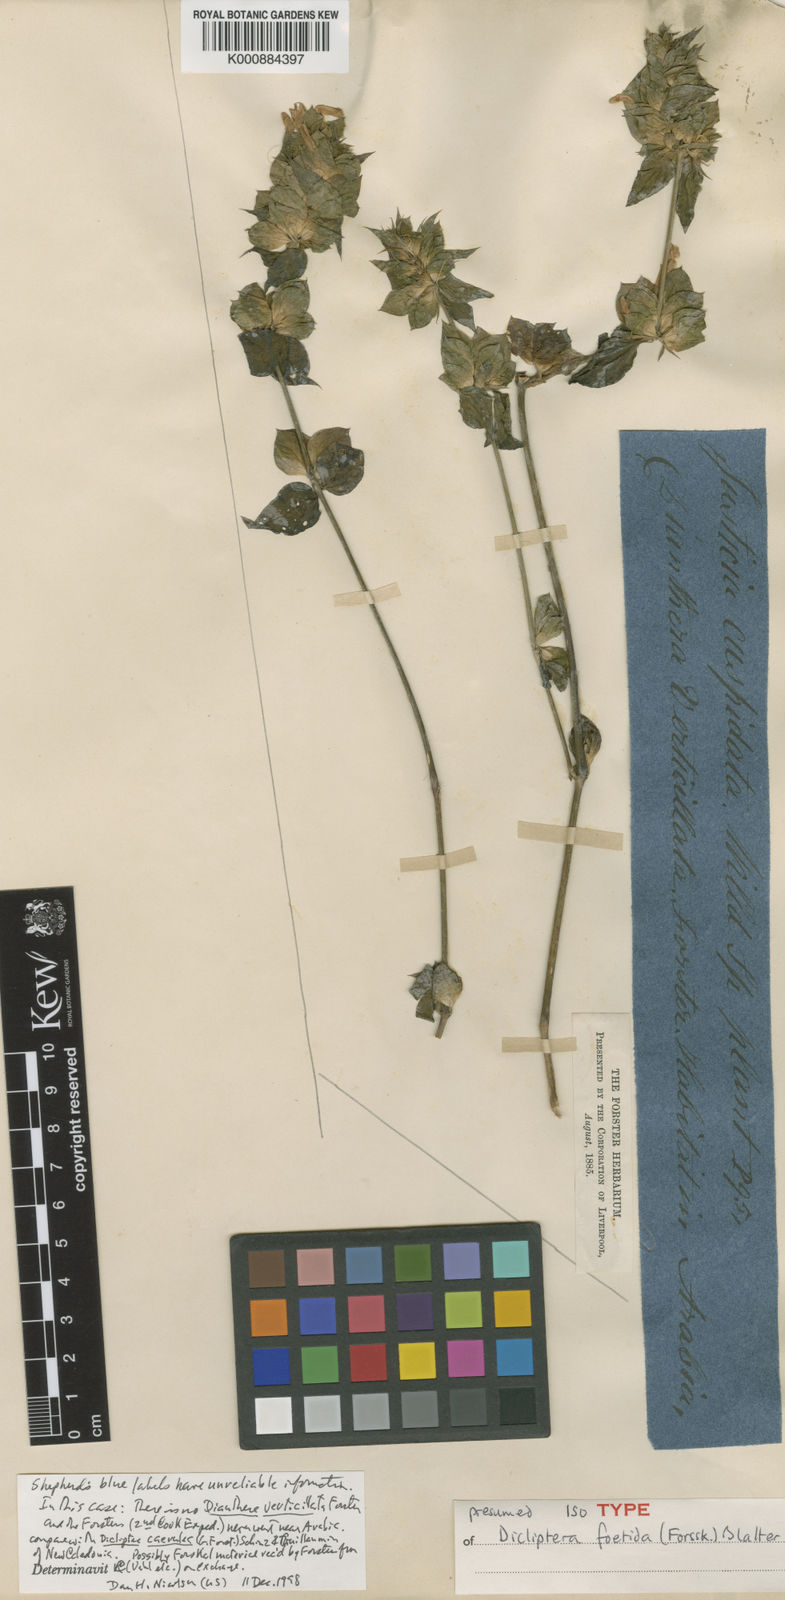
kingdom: Plantae
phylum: Tracheophyta
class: Magnoliopsida
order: Lamiales
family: Acanthaceae
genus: Dicliptera
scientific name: Dicliptera foetida
